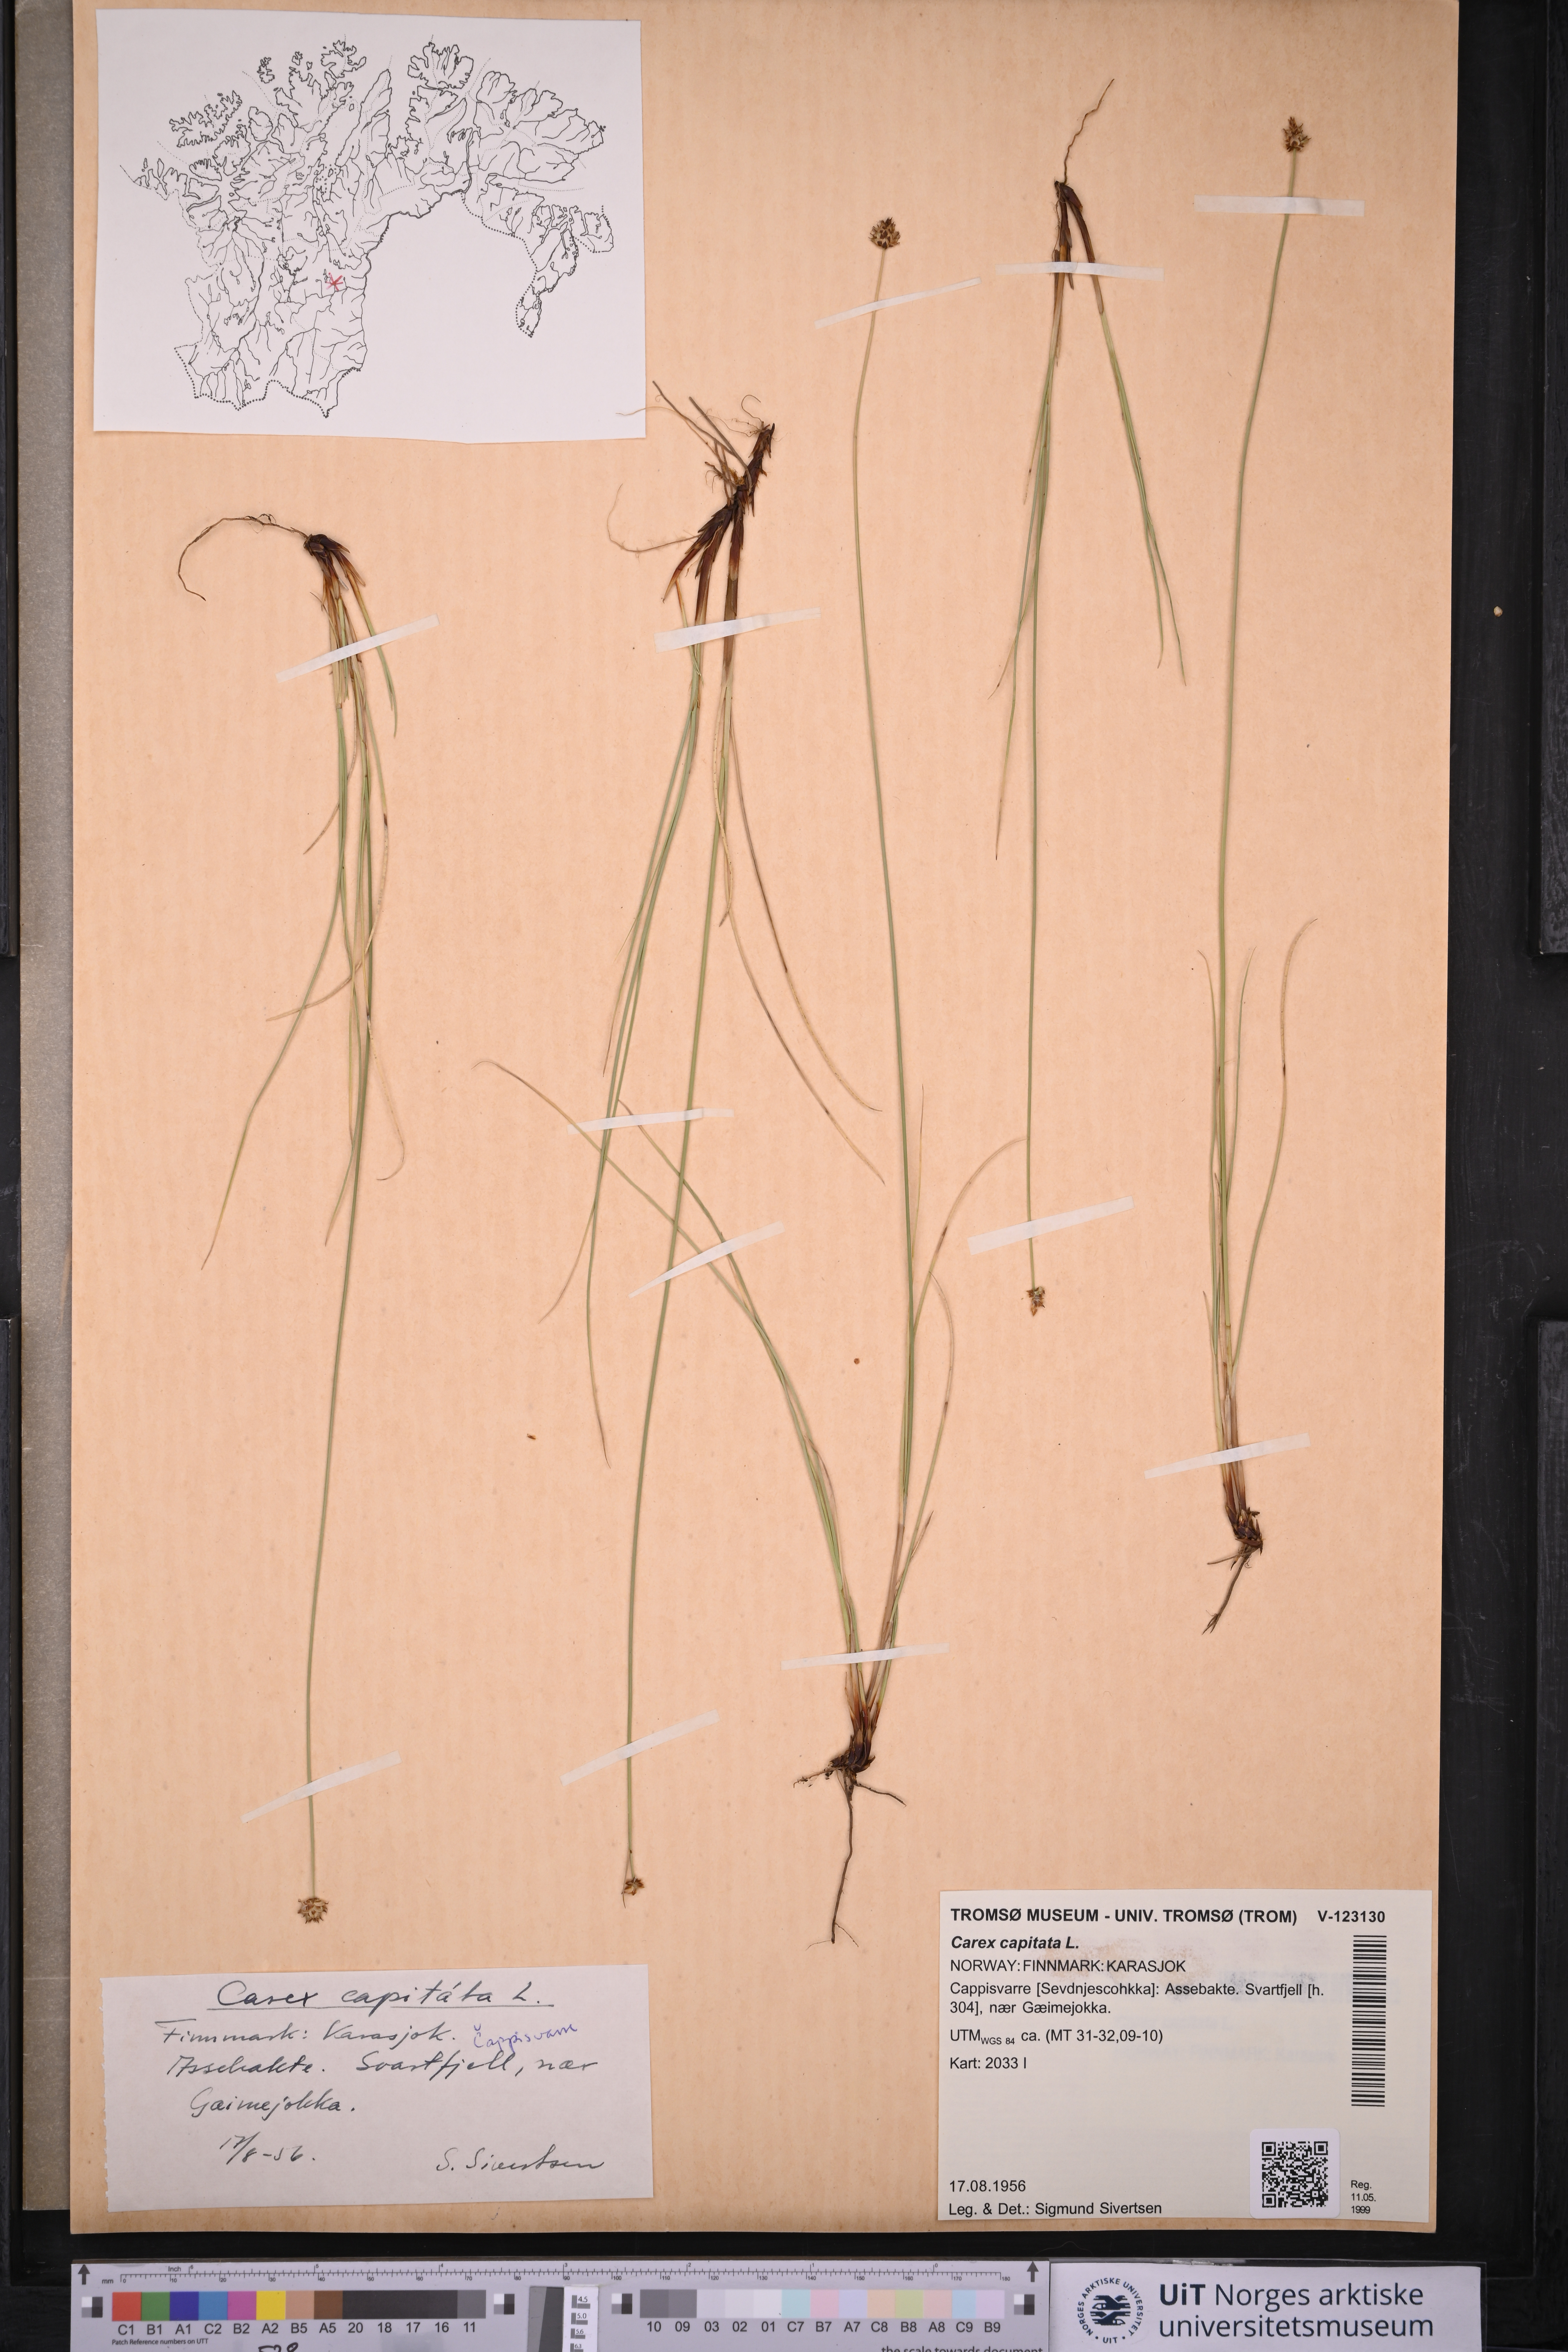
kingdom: Plantae
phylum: Tracheophyta
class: Liliopsida
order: Poales
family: Cyperaceae
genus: Carex
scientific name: Carex capitata
